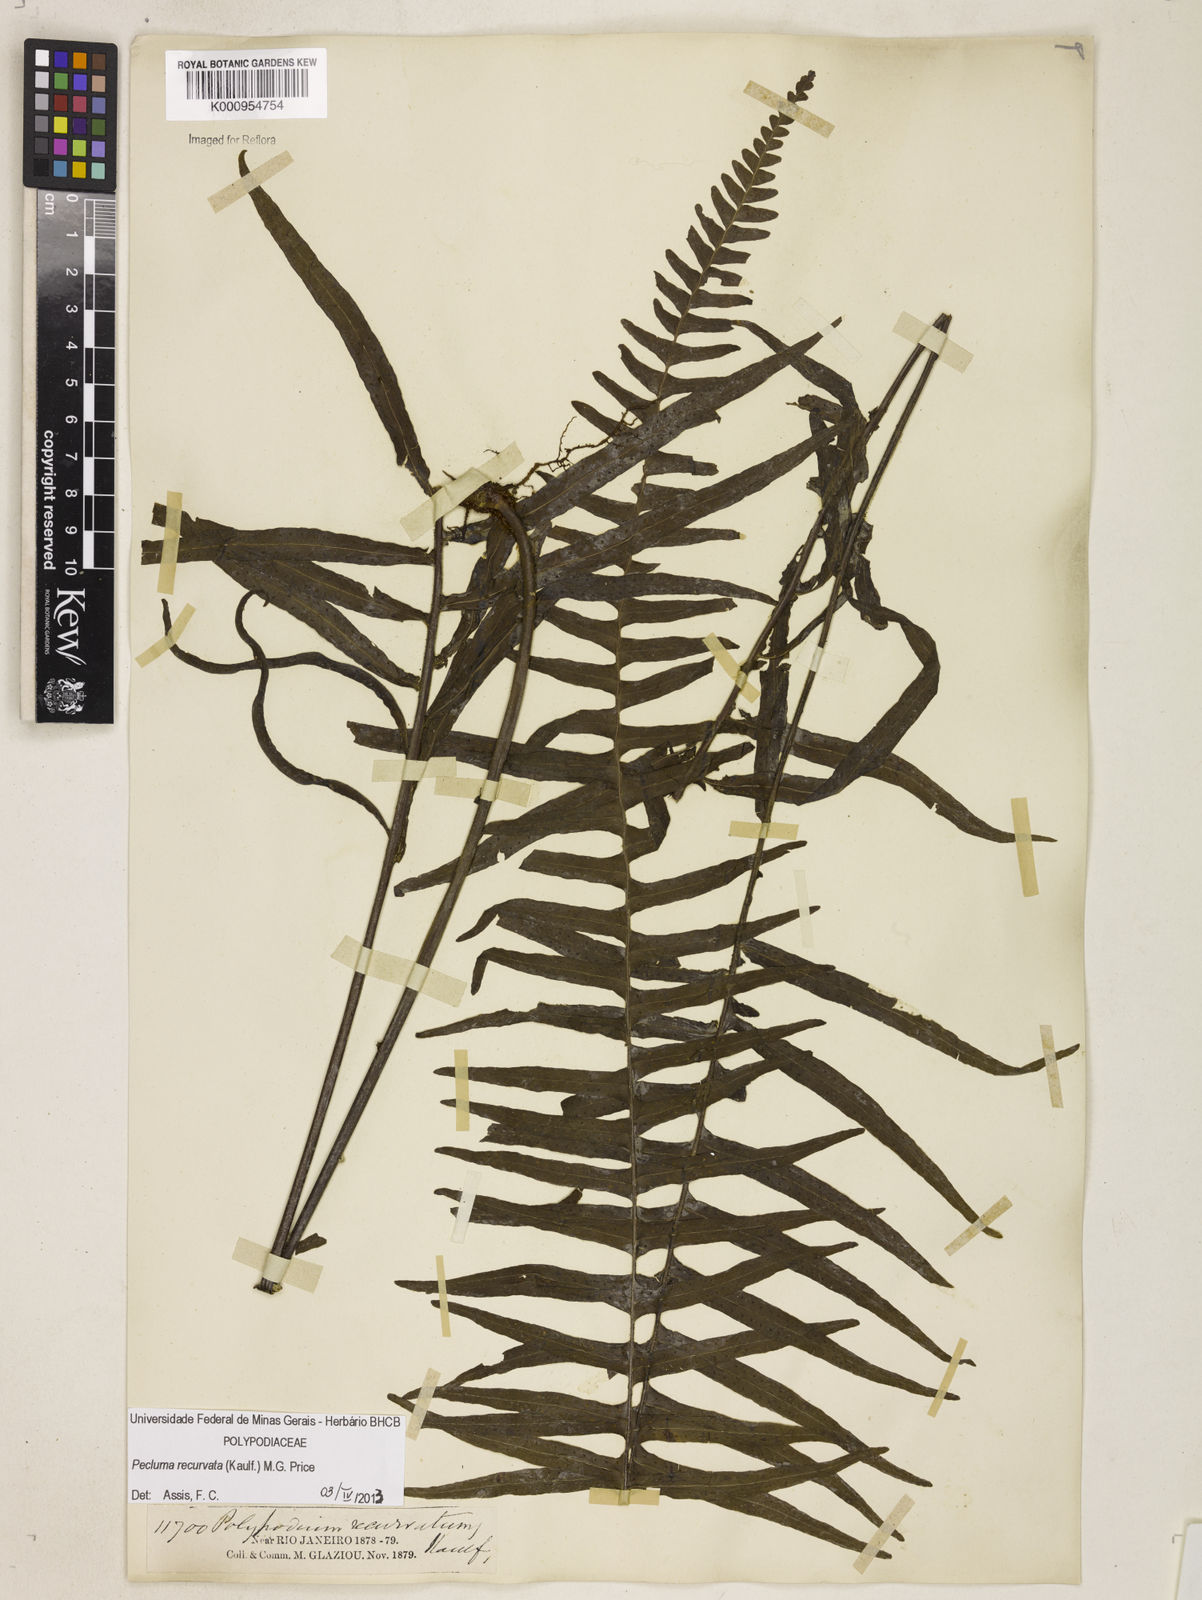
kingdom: Plantae
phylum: Tracheophyta
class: Polypodiopsida
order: Polypodiales
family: Polypodiaceae
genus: Pecluma
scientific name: Pecluma recurvata
